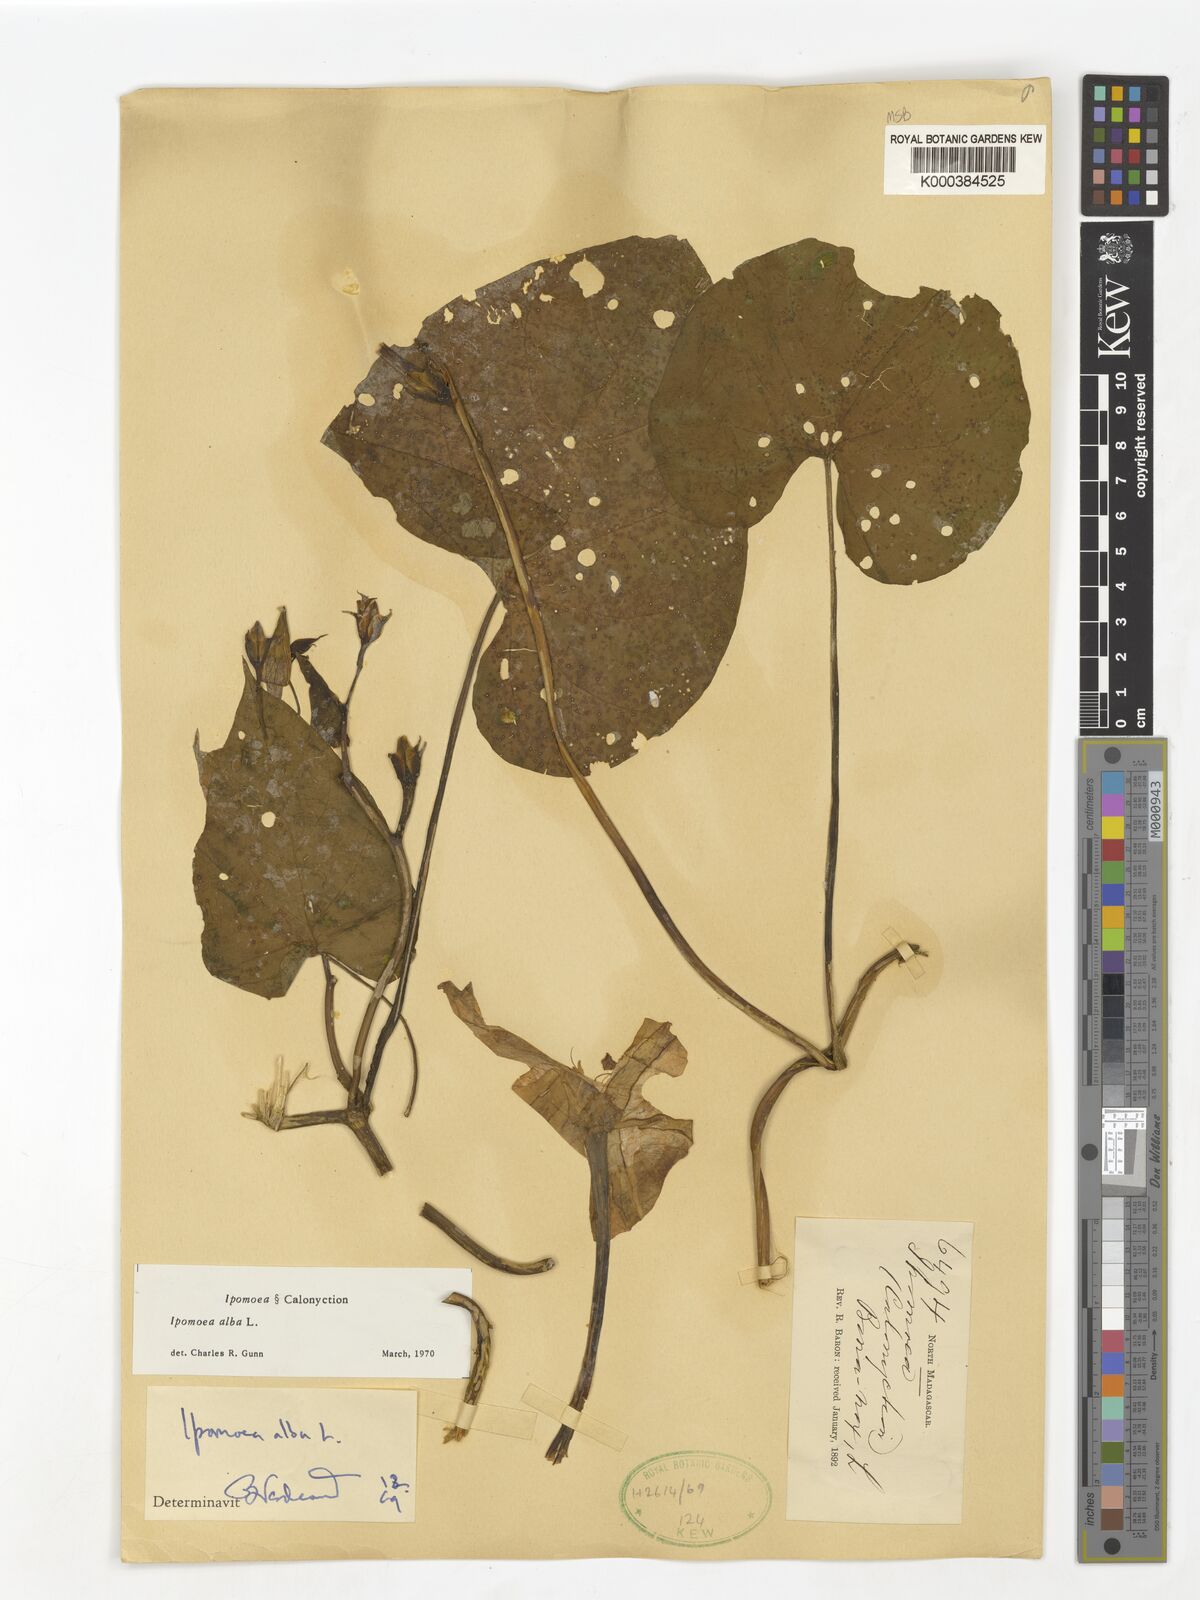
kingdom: Plantae
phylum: Tracheophyta
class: Magnoliopsida
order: Solanales
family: Convolvulaceae
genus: Ipomoea
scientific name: Ipomoea alba
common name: Moonflower
